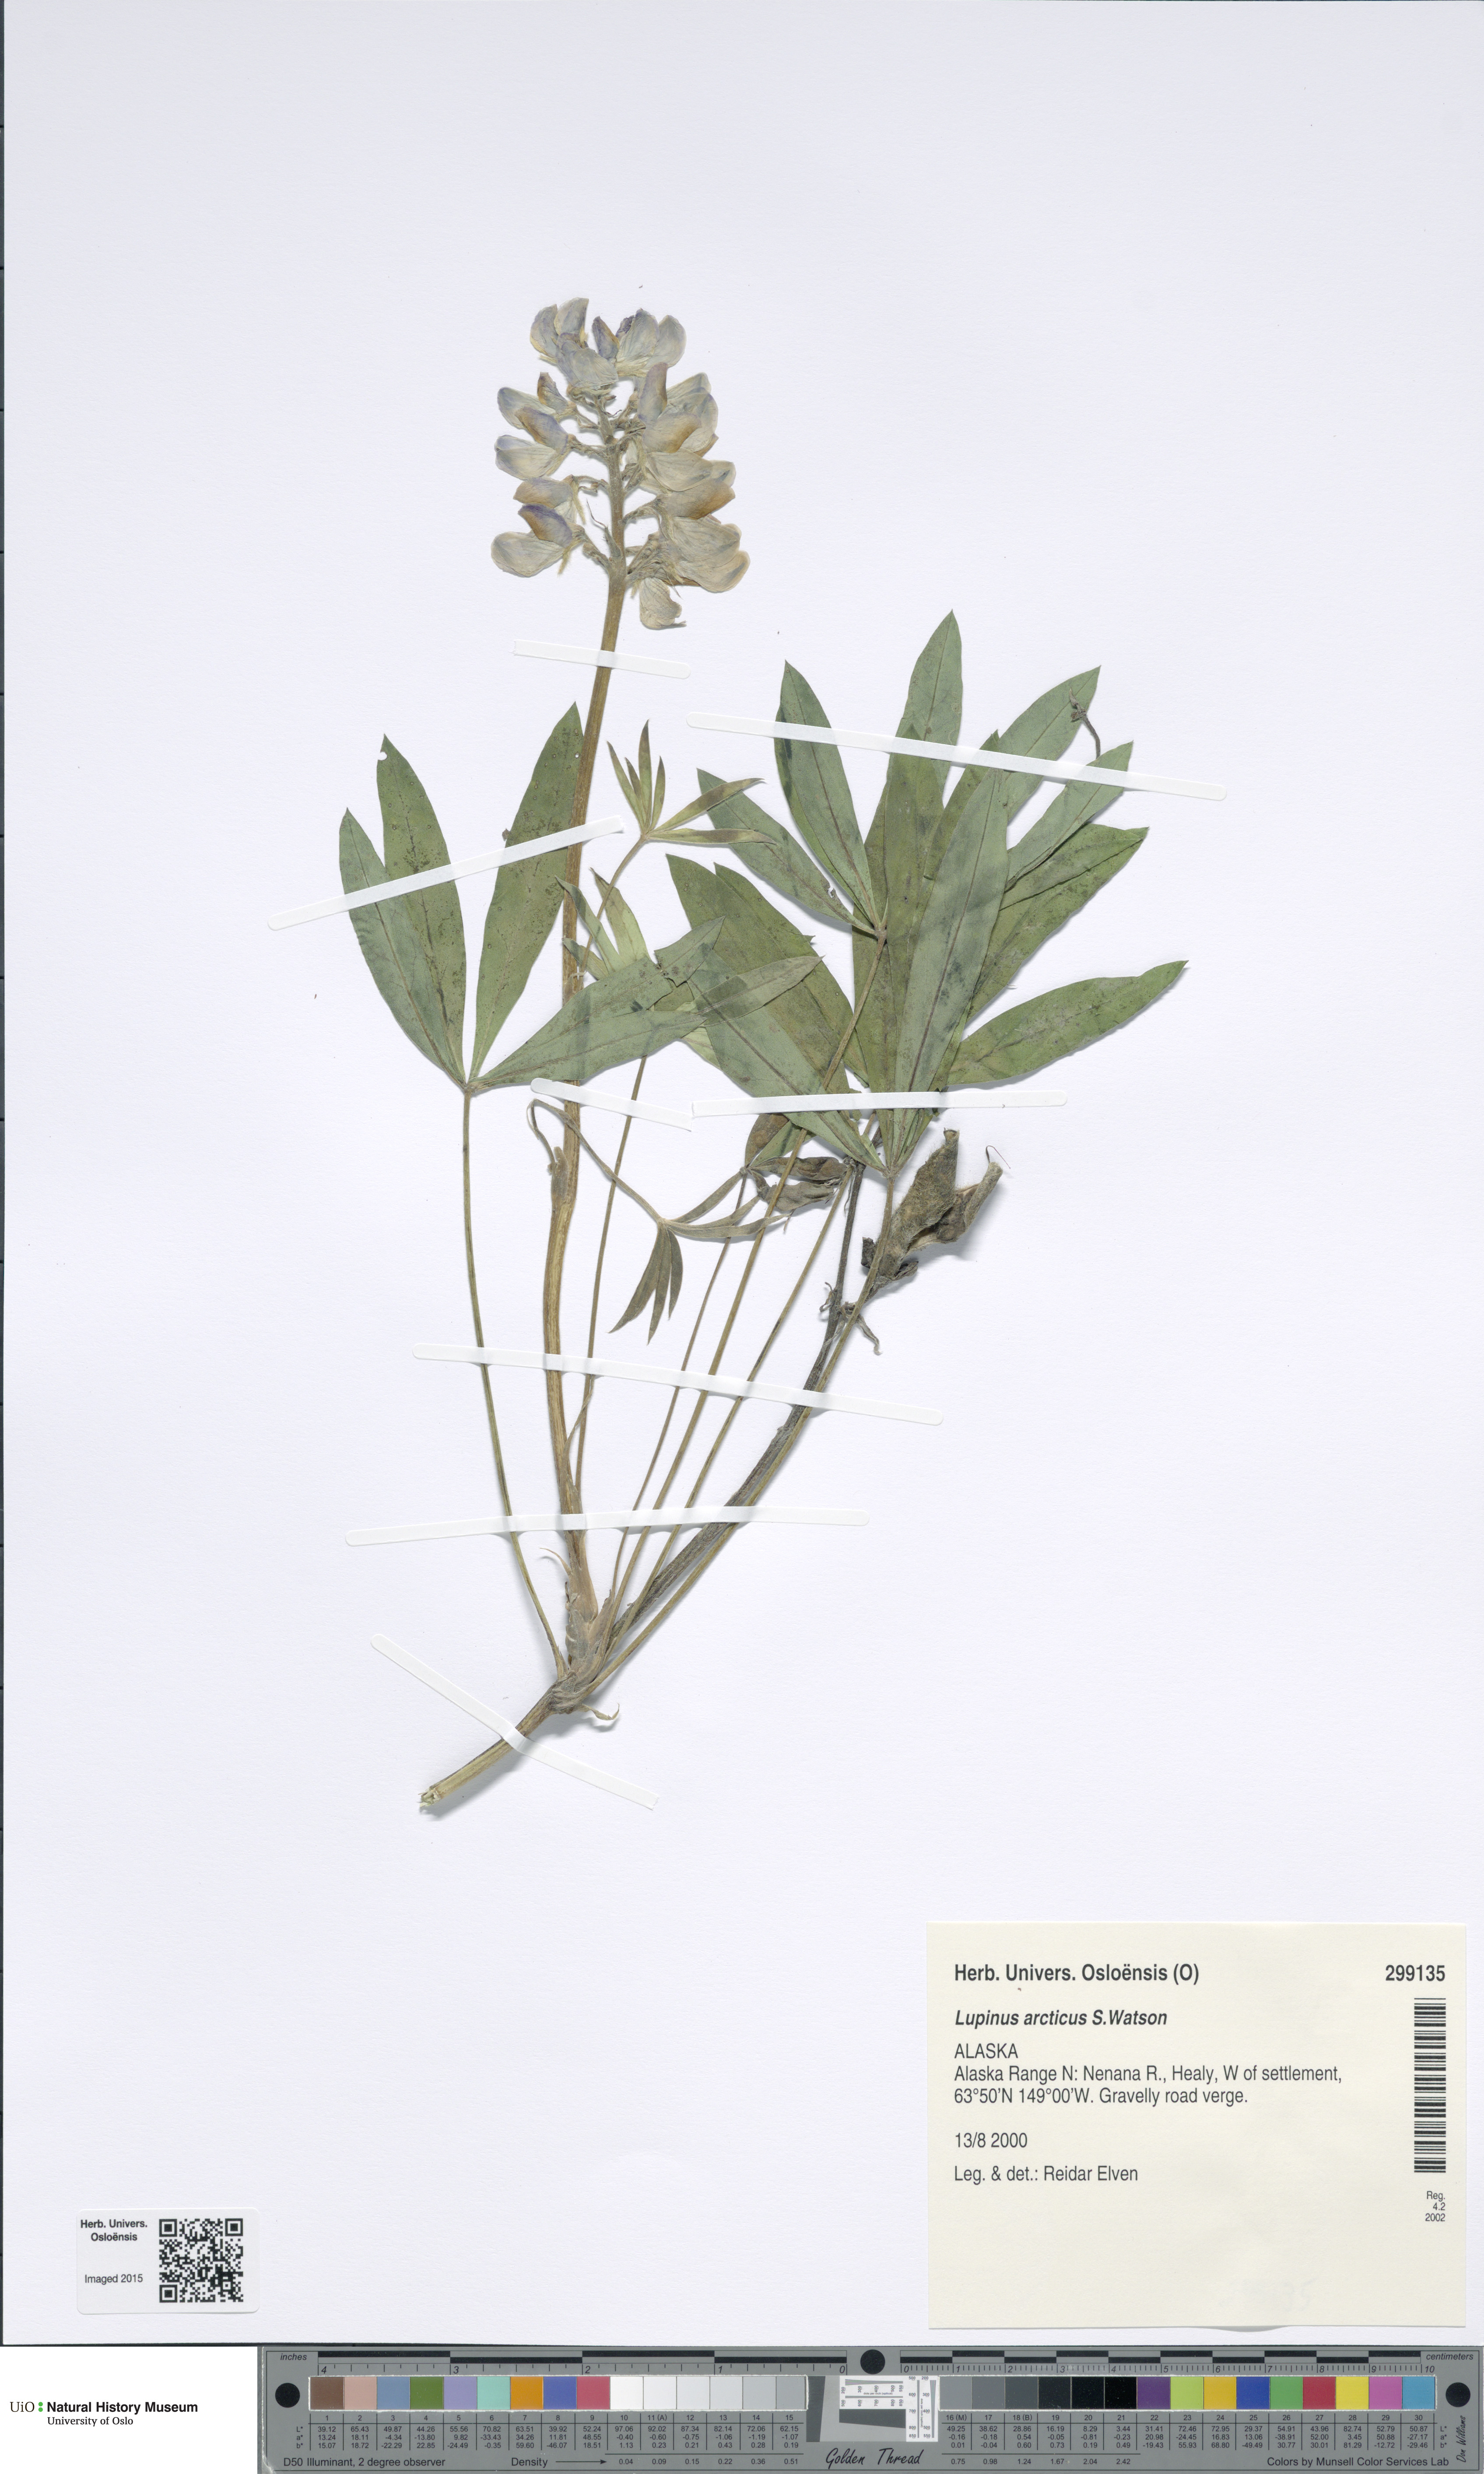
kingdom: Plantae
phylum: Tracheophyta
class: Magnoliopsida
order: Fabales
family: Fabaceae
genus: Lupinus
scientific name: Lupinus arcticus
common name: Arctic lupine
